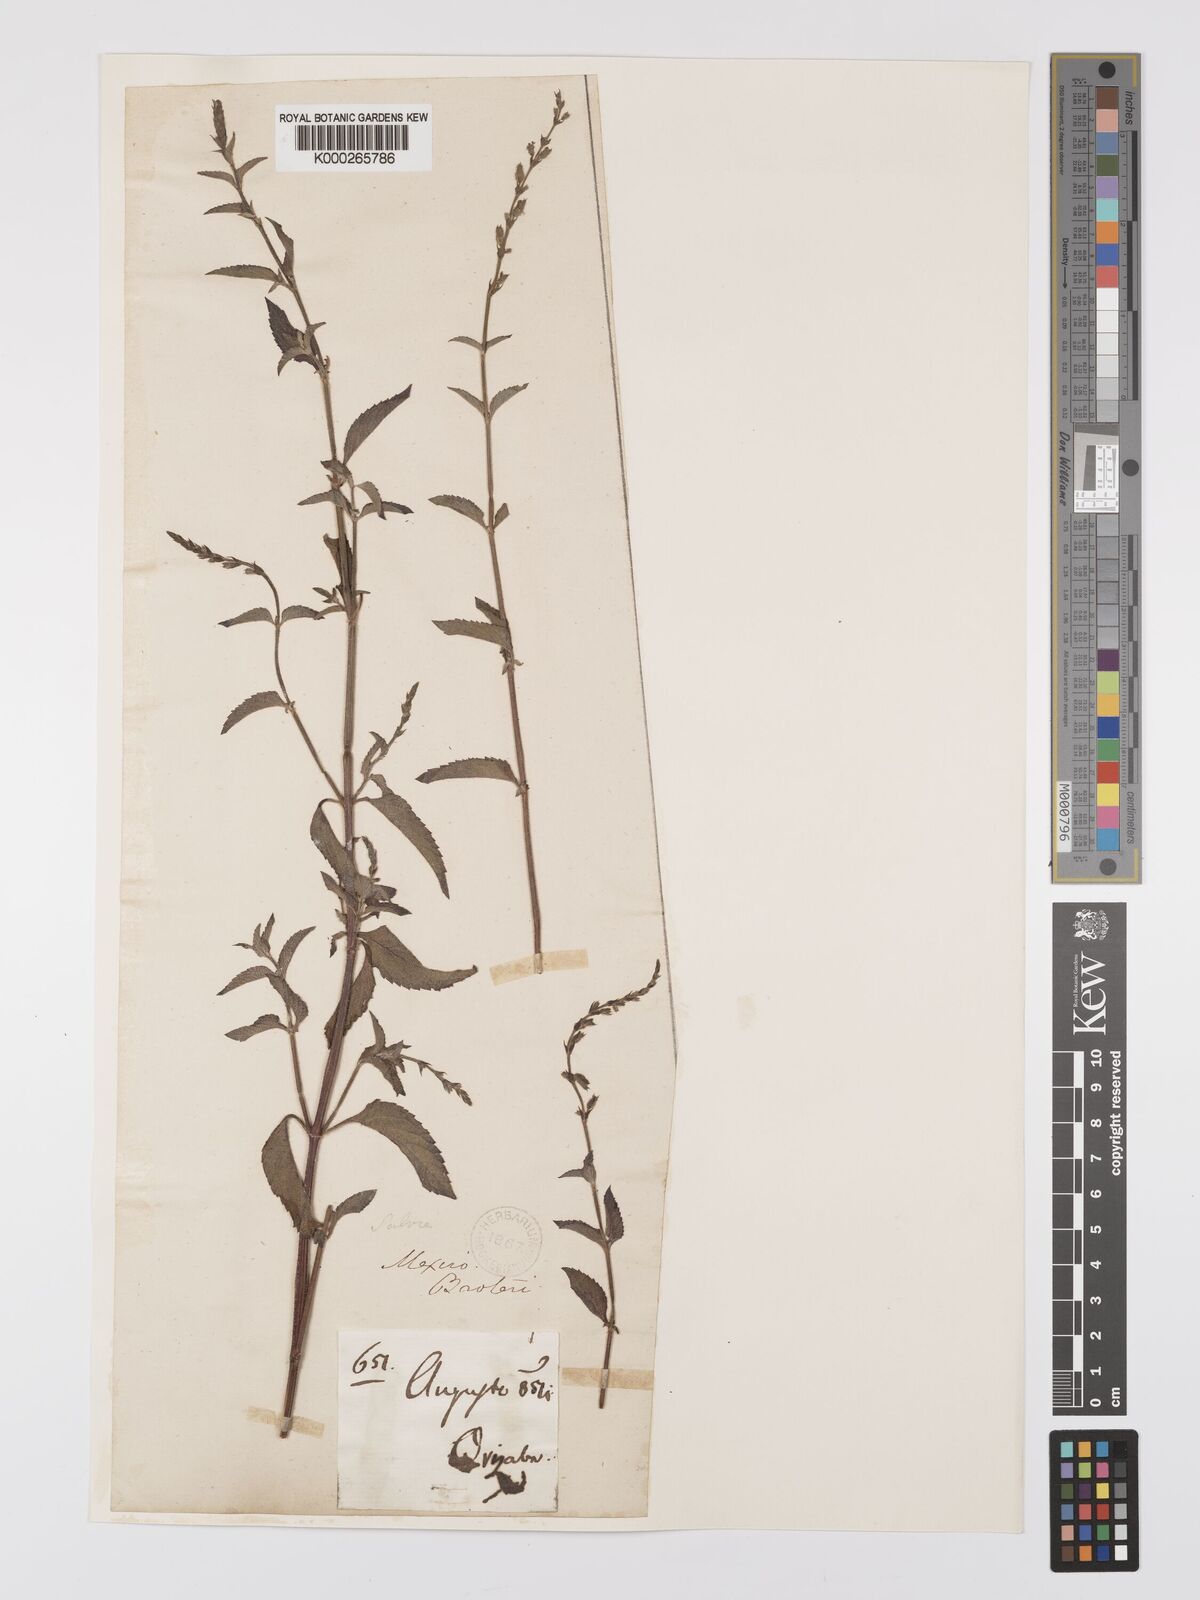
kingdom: Plantae
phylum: Tracheophyta
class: Magnoliopsida
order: Lamiales
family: Lamiaceae
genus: Salvia
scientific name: Salvia misella
